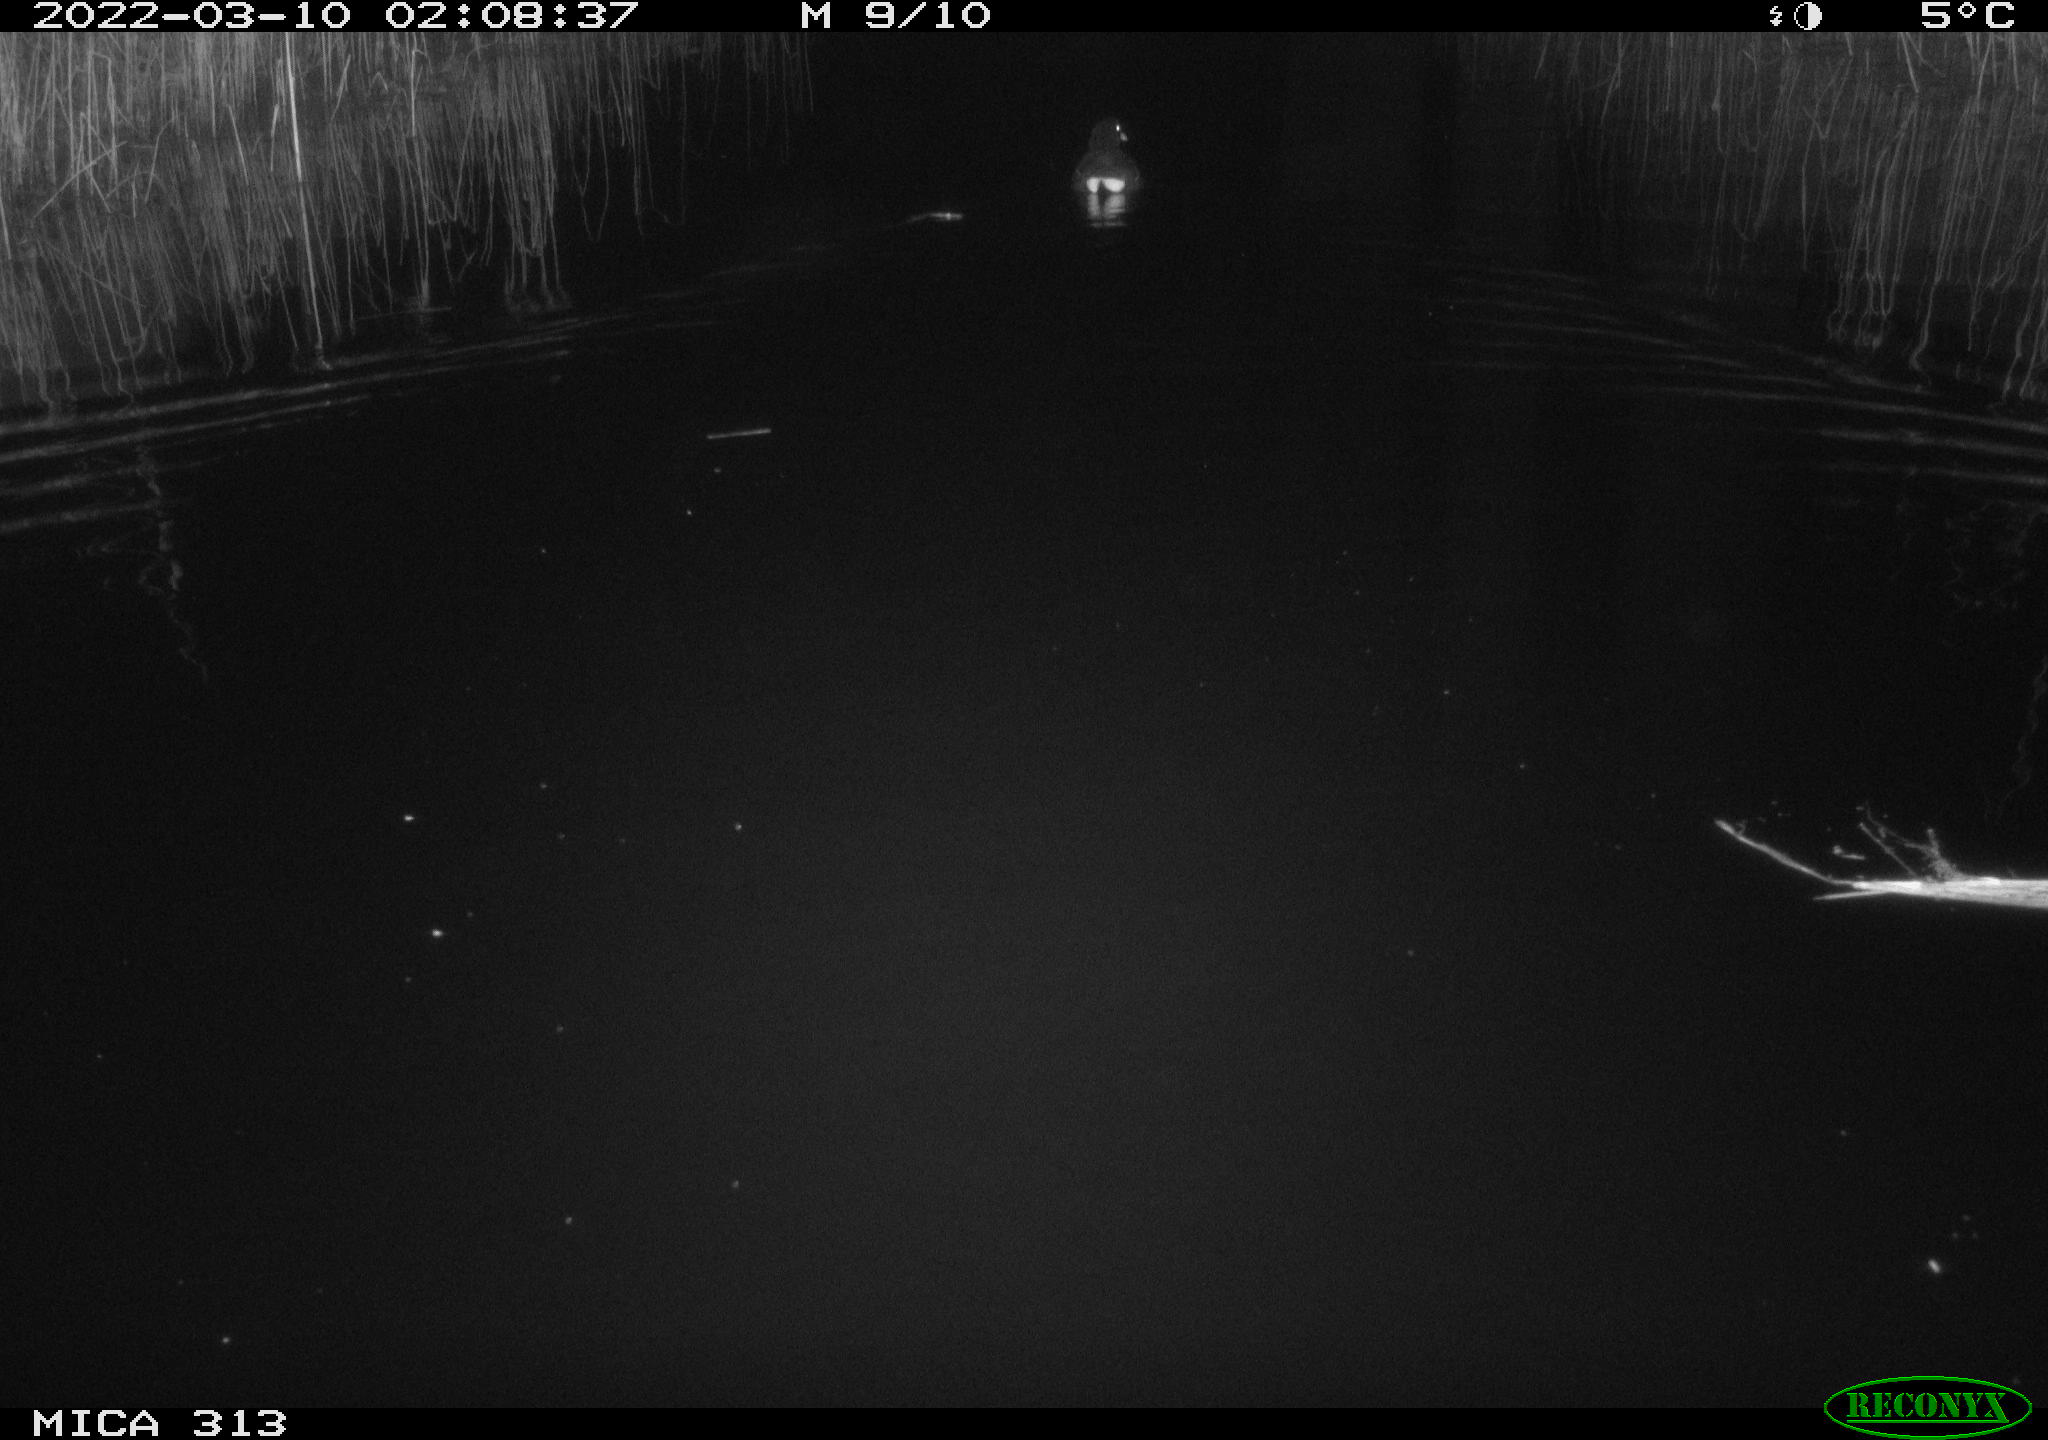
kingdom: Animalia
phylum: Chordata
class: Aves
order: Gruiformes
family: Rallidae
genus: Gallinula
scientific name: Gallinula chloropus
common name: Common moorhen
